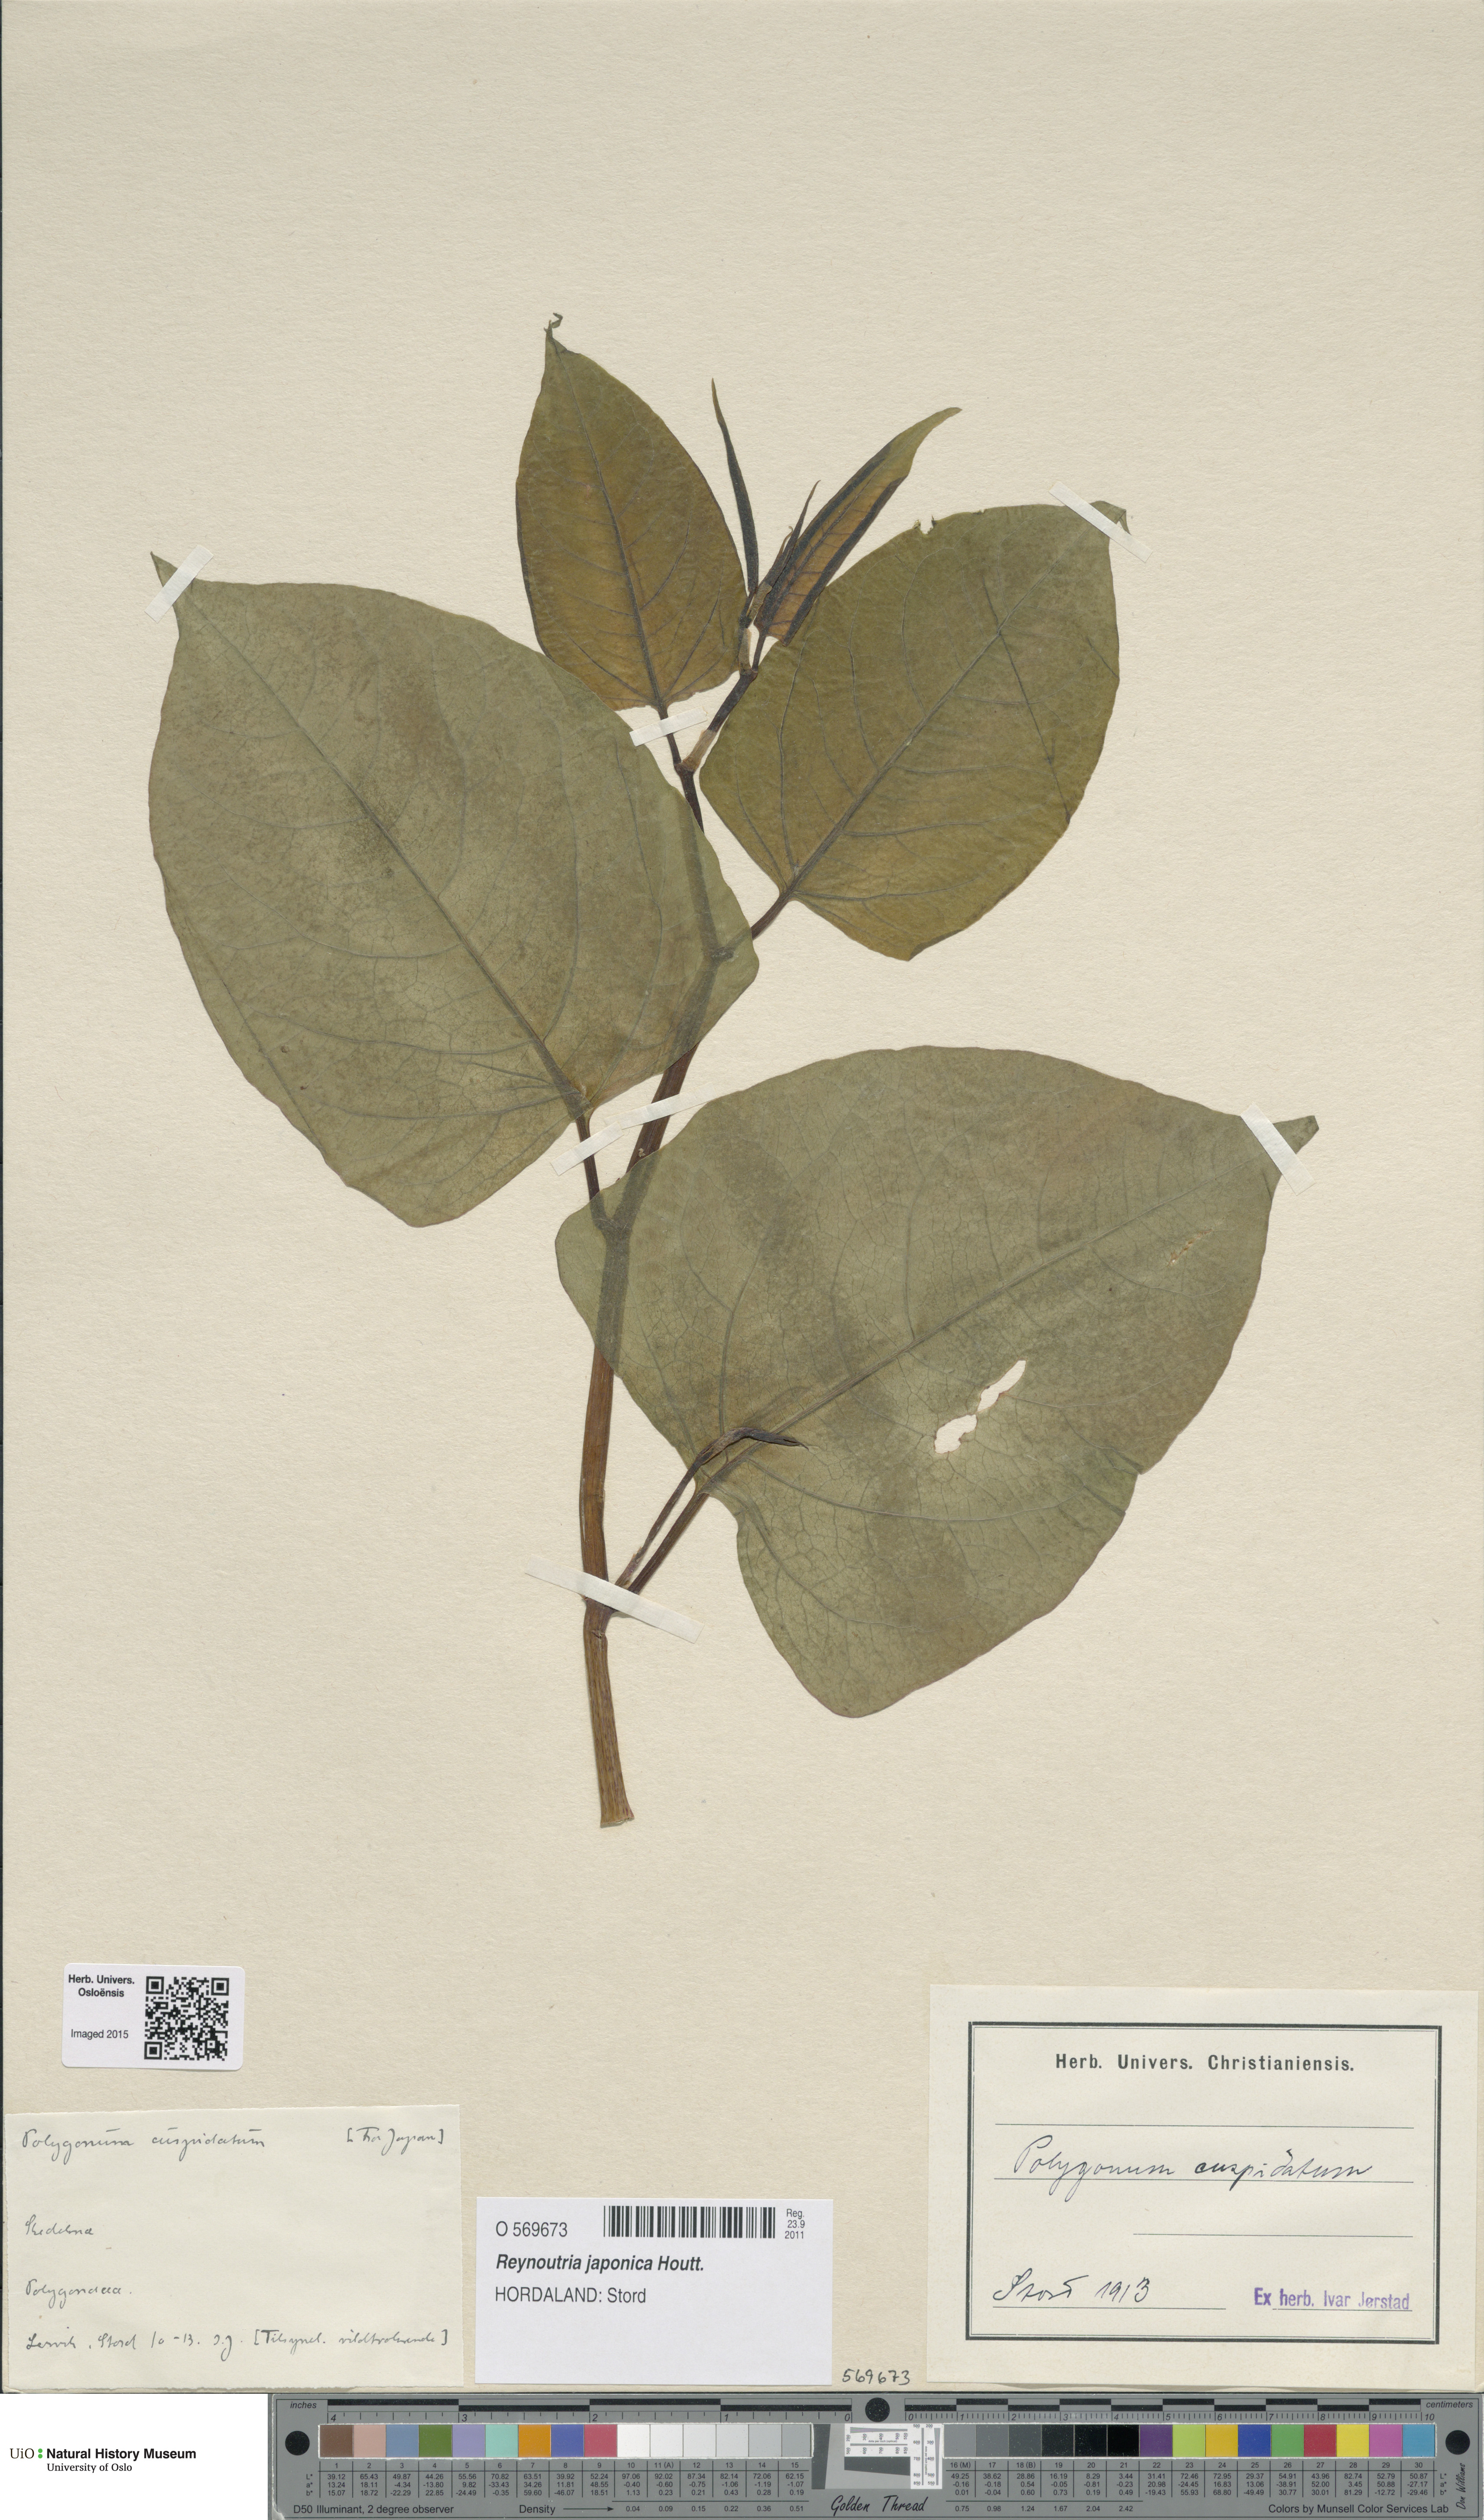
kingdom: Plantae
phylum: Tracheophyta
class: Magnoliopsida
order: Caryophyllales
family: Polygonaceae
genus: Reynoutria
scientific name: Reynoutria japonica
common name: Japanese knotweed
